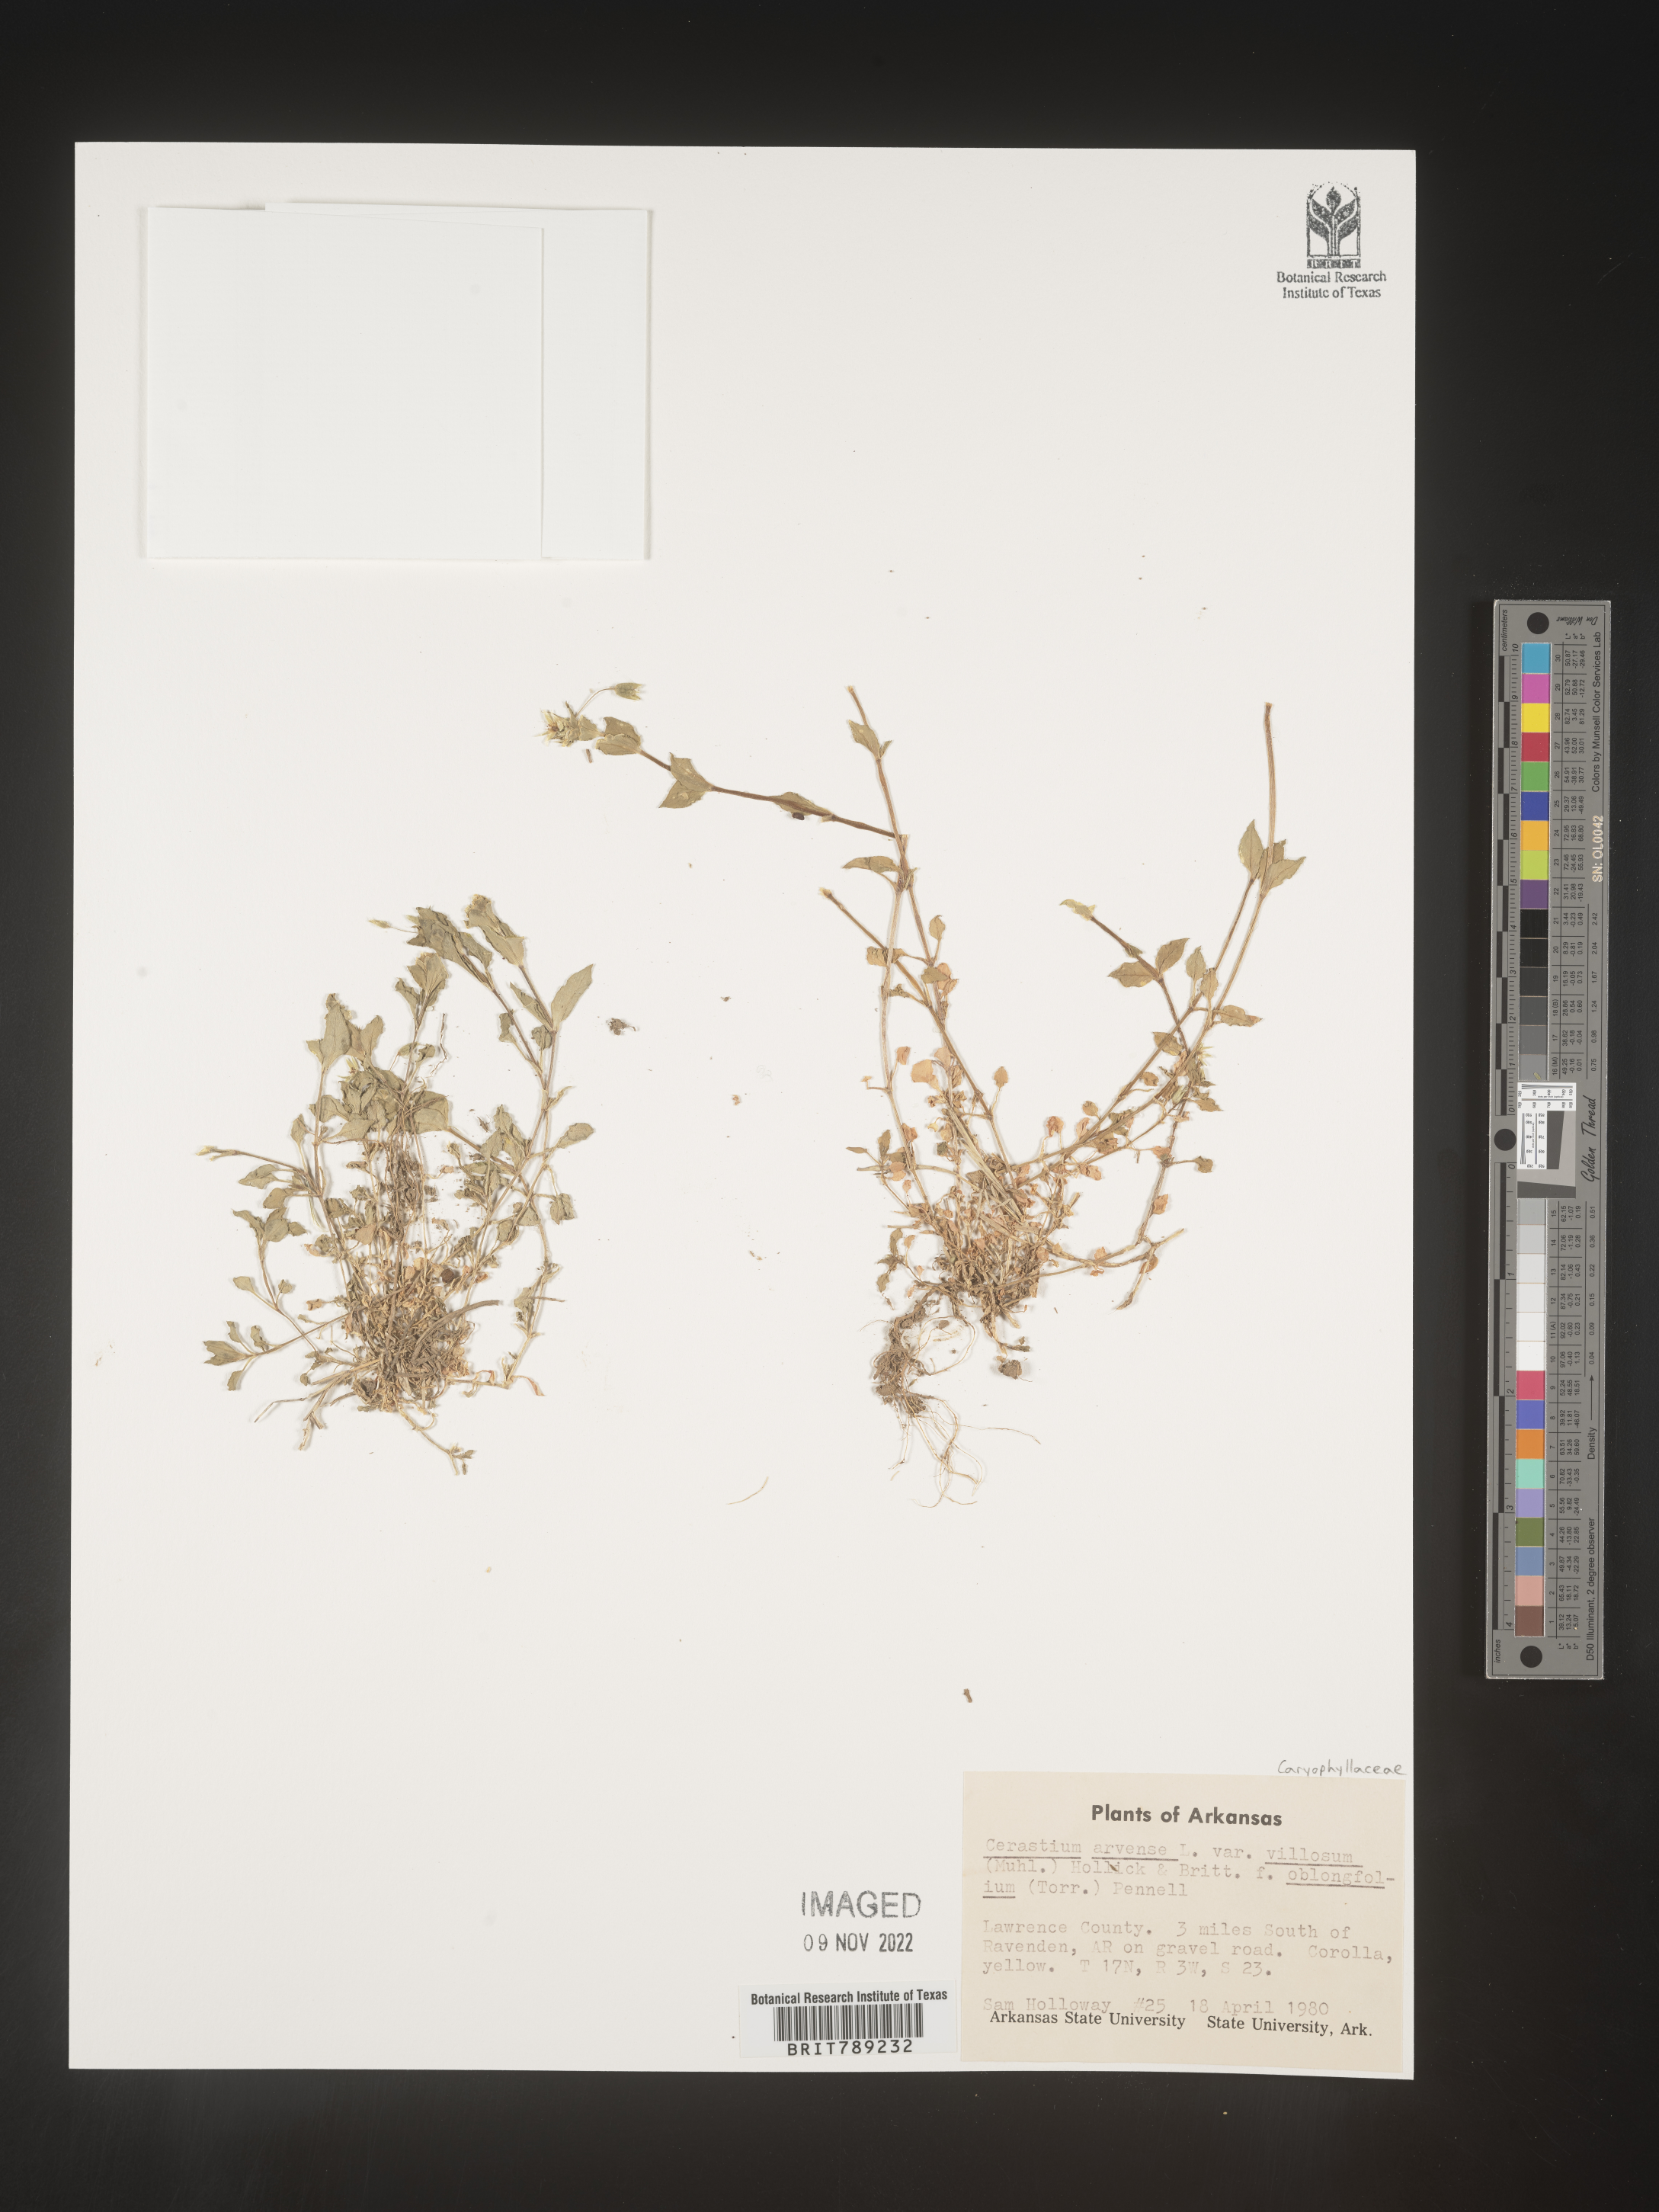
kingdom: Plantae
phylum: Tracheophyta
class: Magnoliopsida
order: Caryophyllales
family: Caryophyllaceae
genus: Cerastium
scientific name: Cerastium arvense
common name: Field mouse-ear
